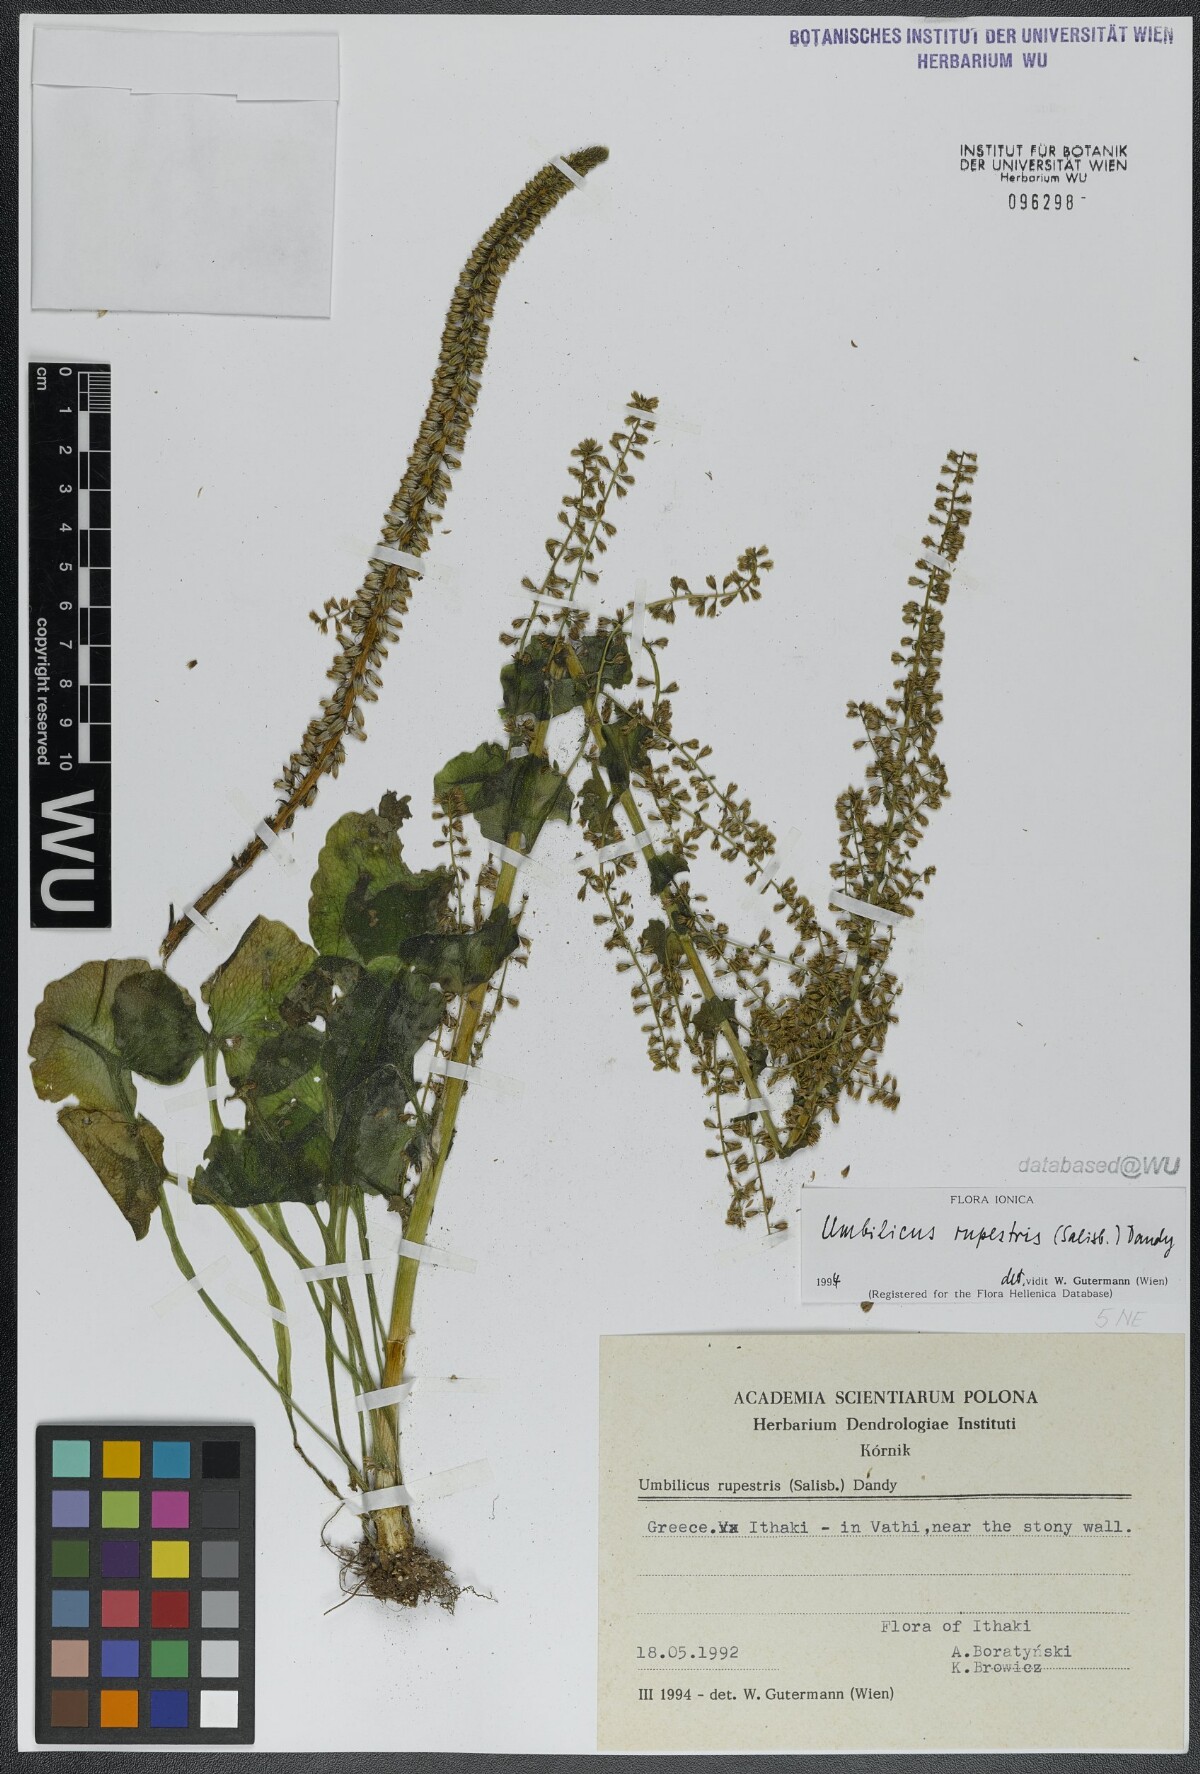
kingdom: Plantae
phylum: Tracheophyta
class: Magnoliopsida
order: Saxifragales
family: Crassulaceae
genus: Umbilicus
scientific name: Umbilicus rupestris
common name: Navelwort
